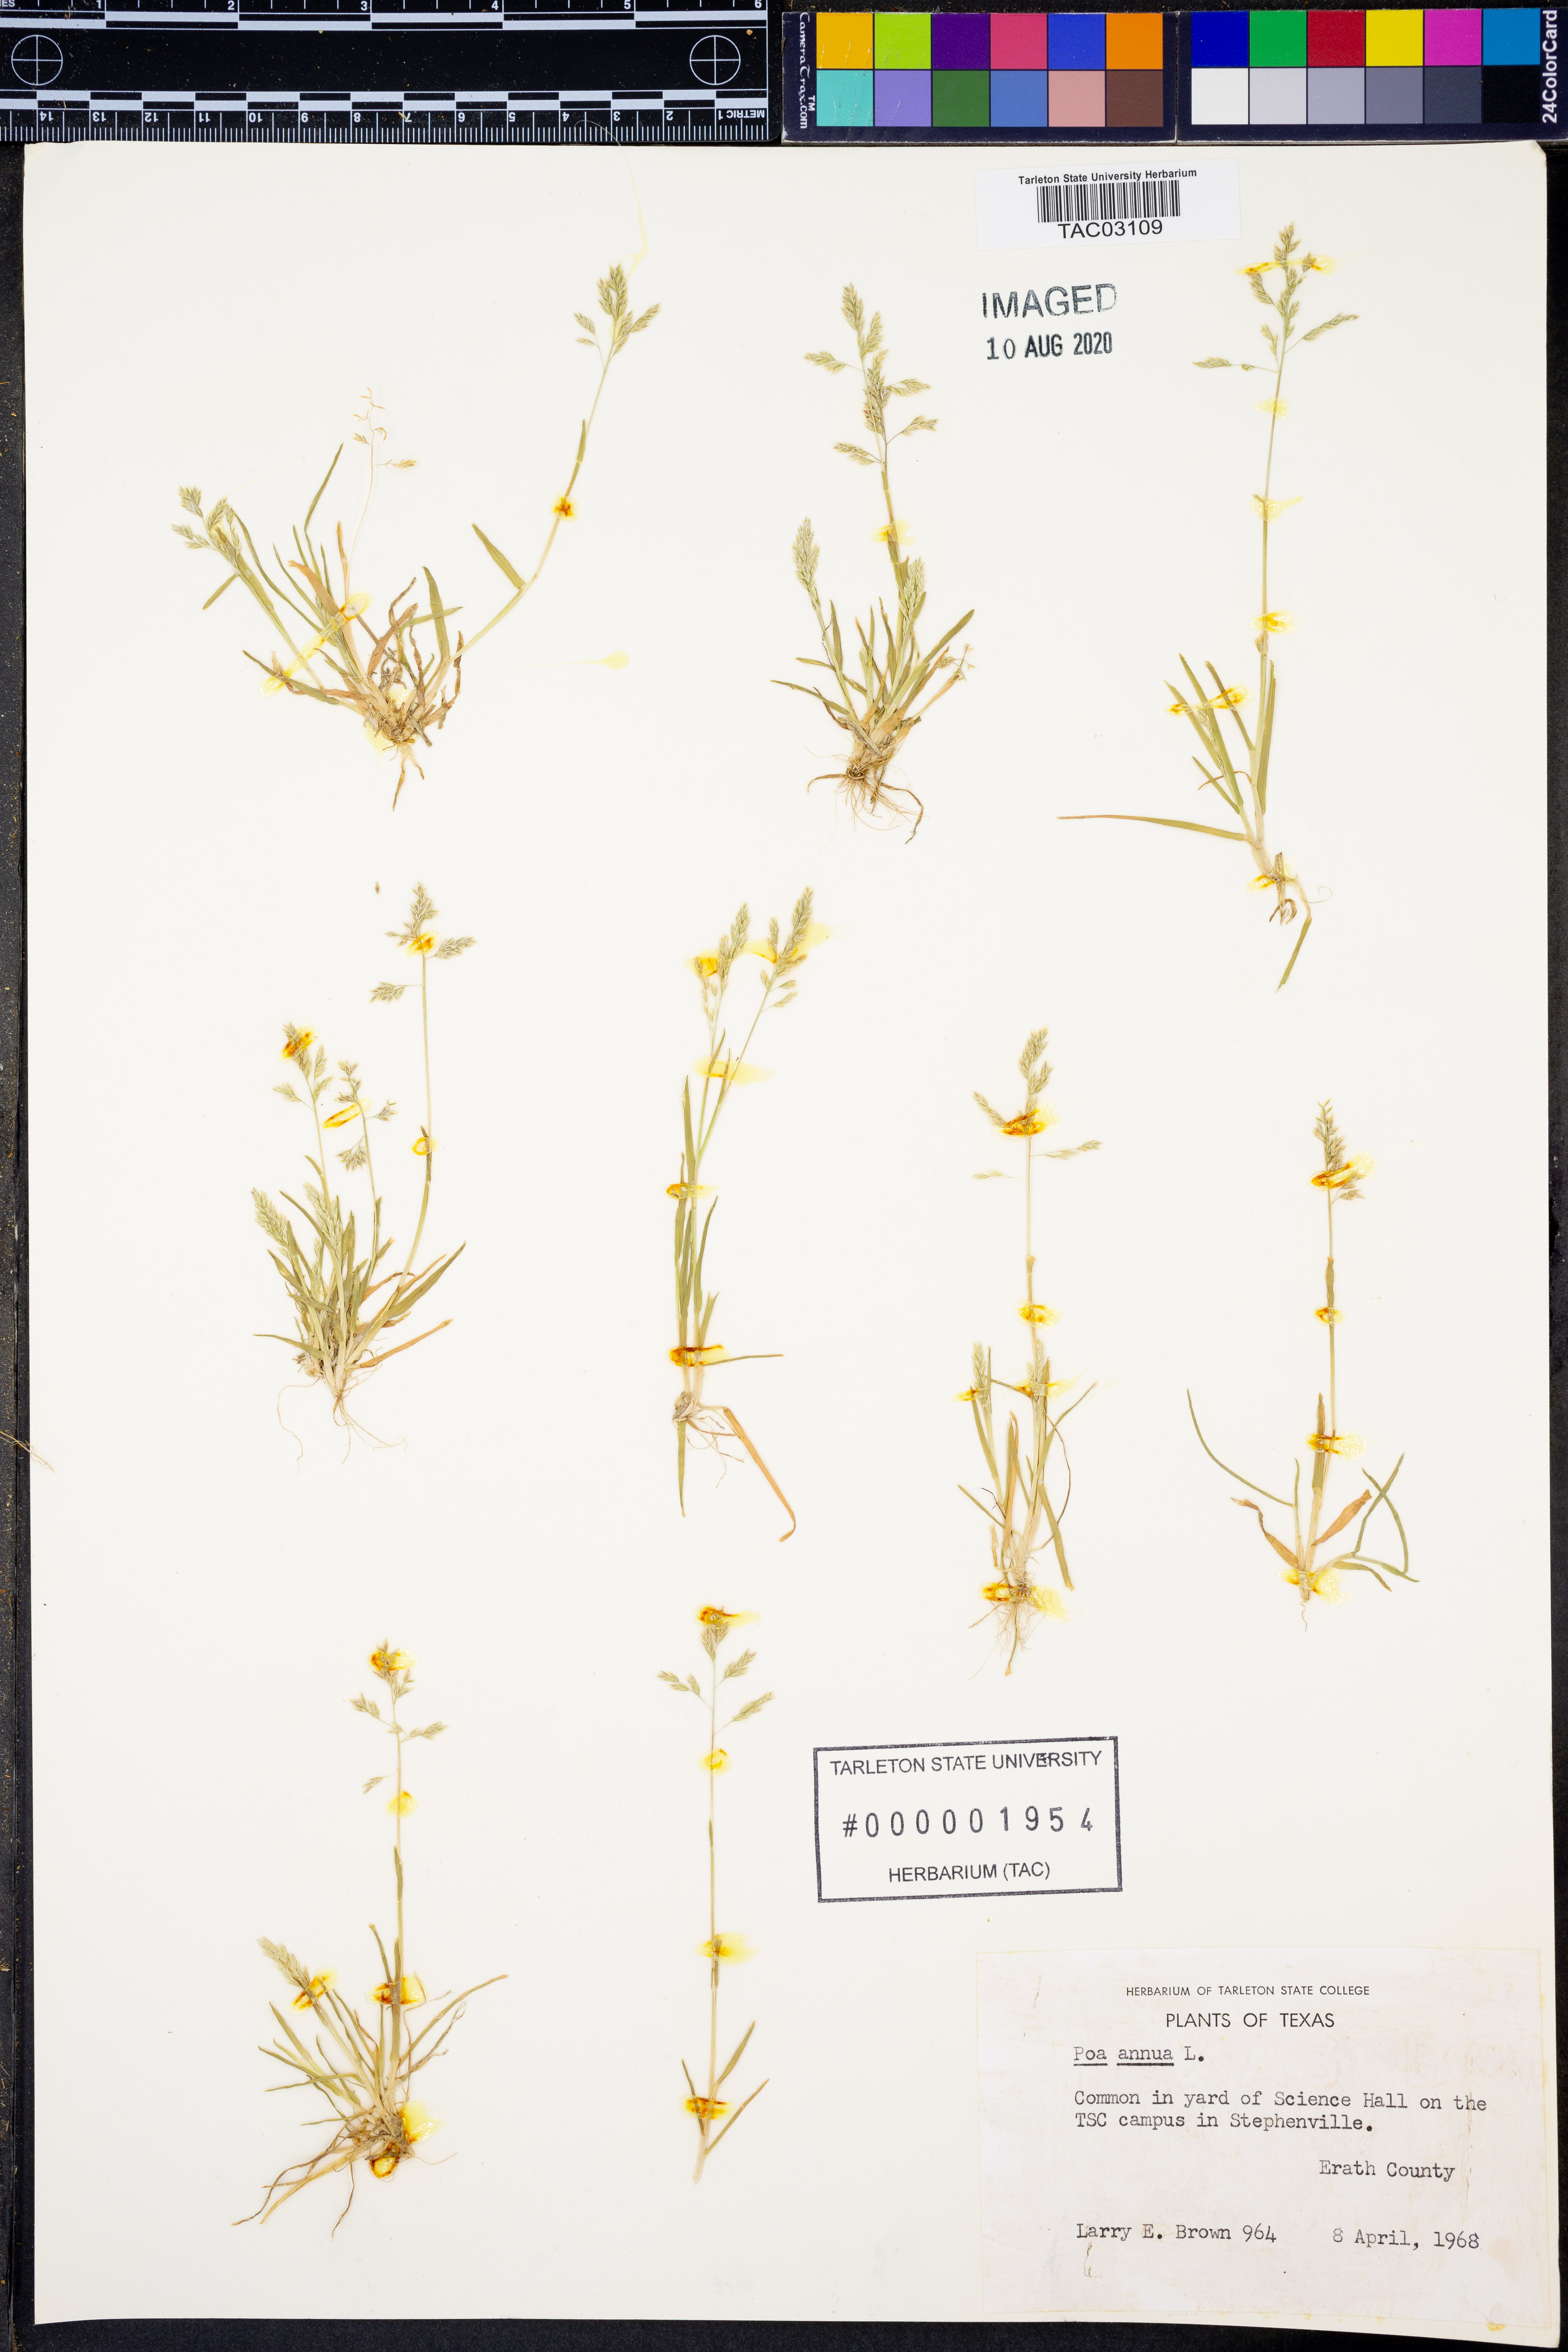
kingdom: Plantae
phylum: Tracheophyta
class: Liliopsida
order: Poales
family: Poaceae
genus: Poa
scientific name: Poa annua
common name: Annual bluegrass
